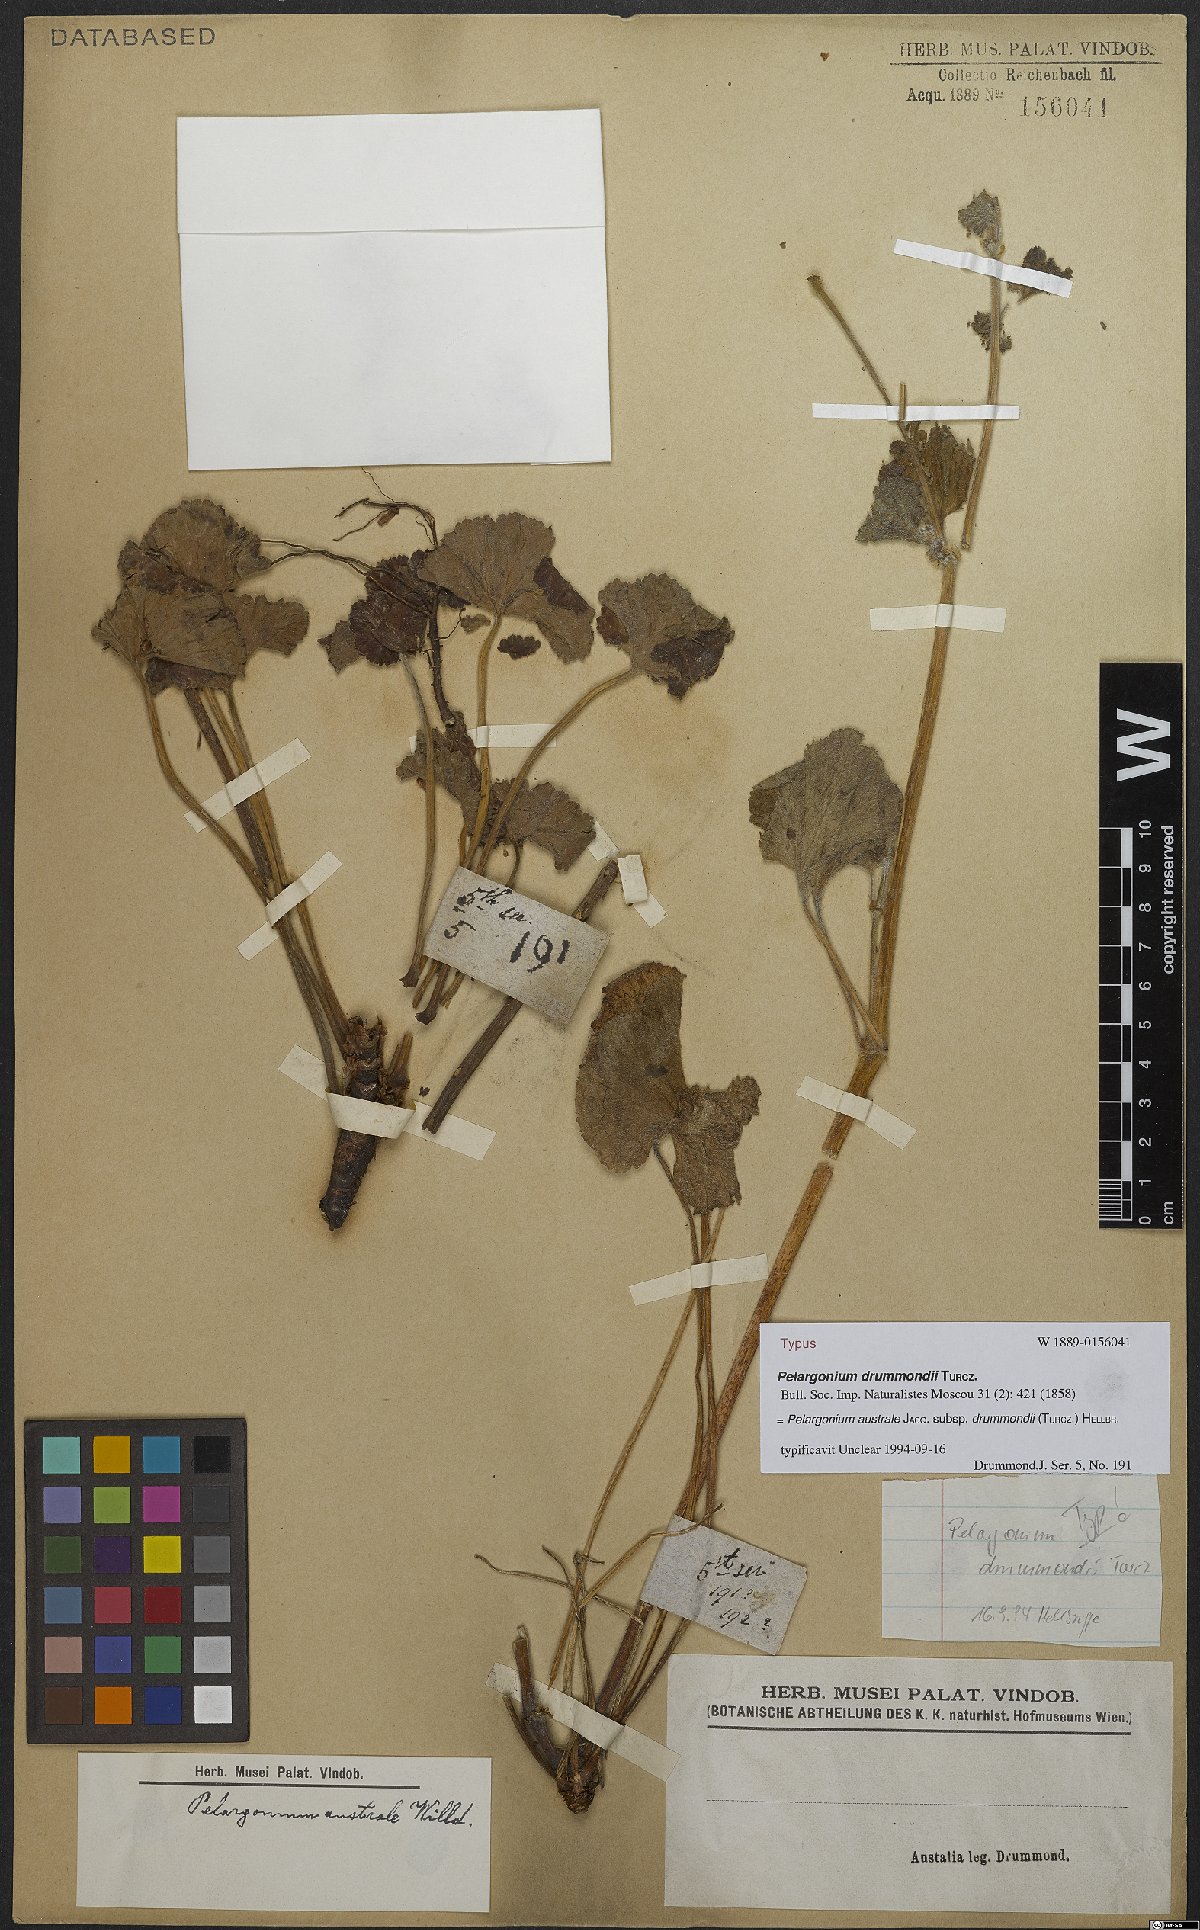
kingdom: Plantae
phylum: Tracheophyta
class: Magnoliopsida
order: Geraniales
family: Geraniaceae
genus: Pelargonium
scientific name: Pelargonium australe
